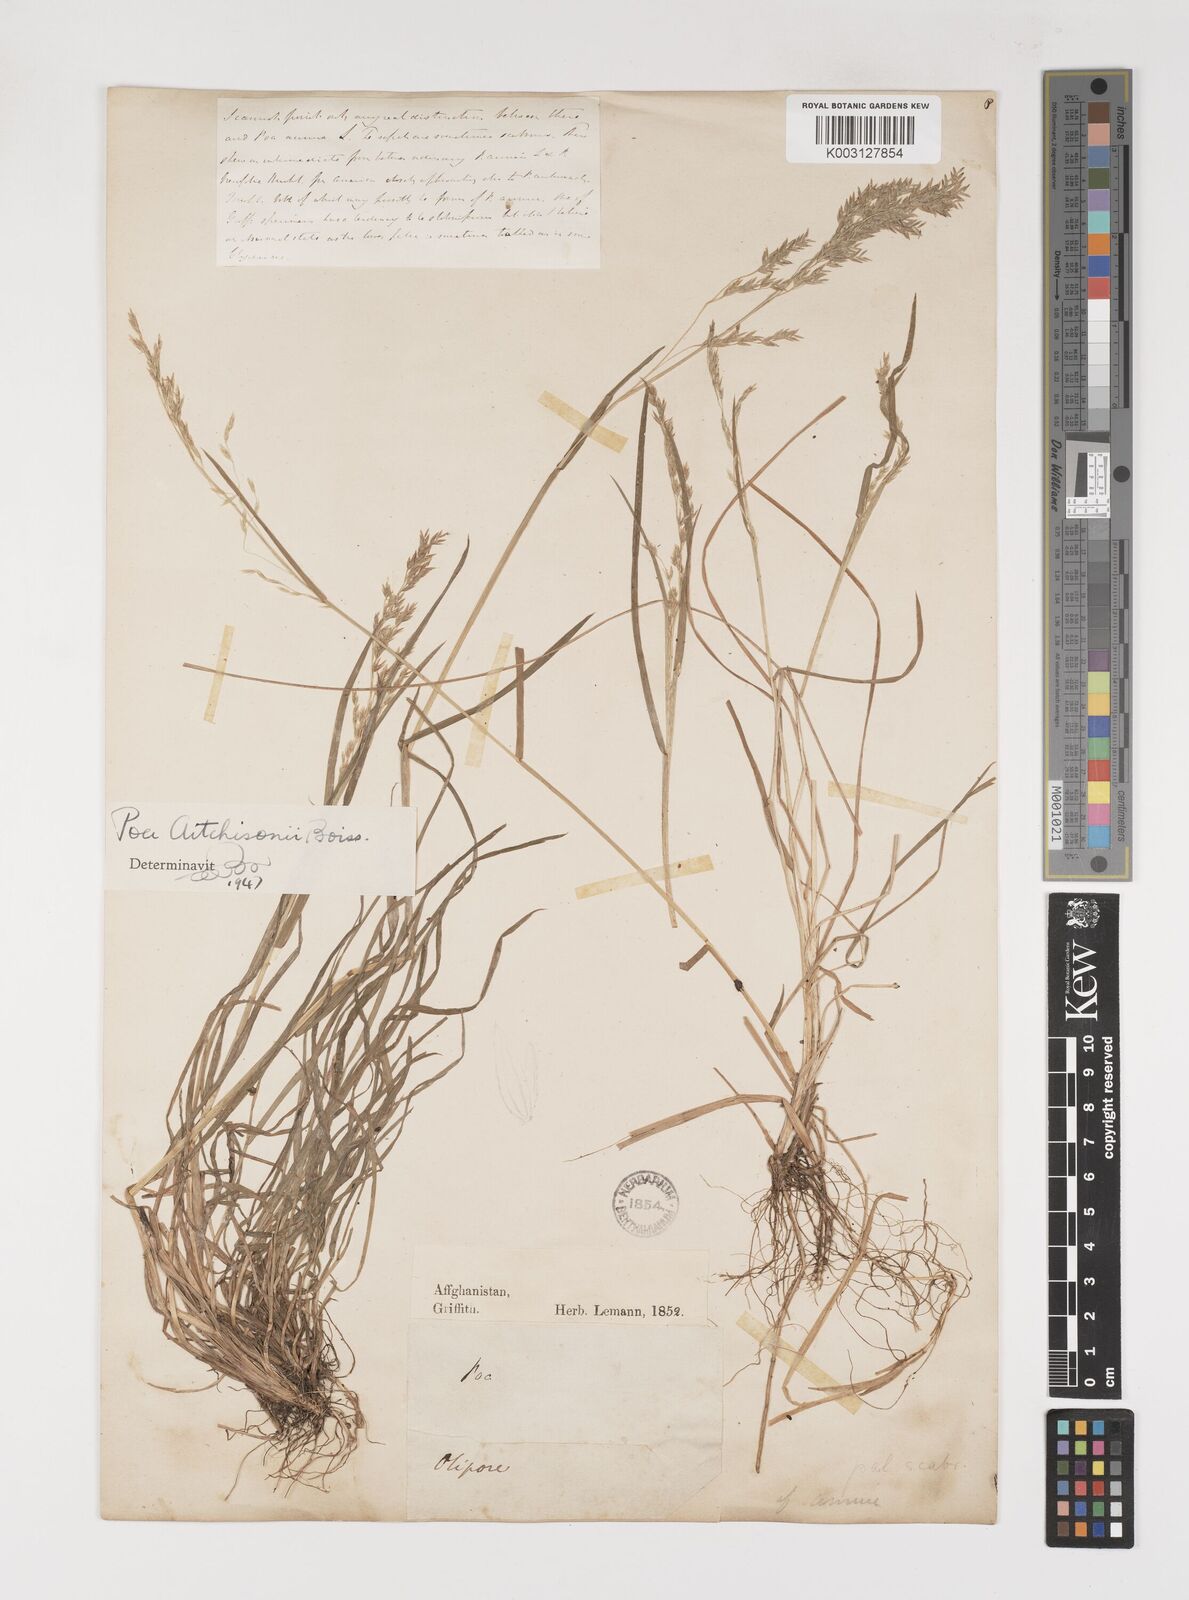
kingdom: Plantae
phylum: Tracheophyta
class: Liliopsida
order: Poales
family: Poaceae
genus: Poa
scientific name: Poa aitchisonii
